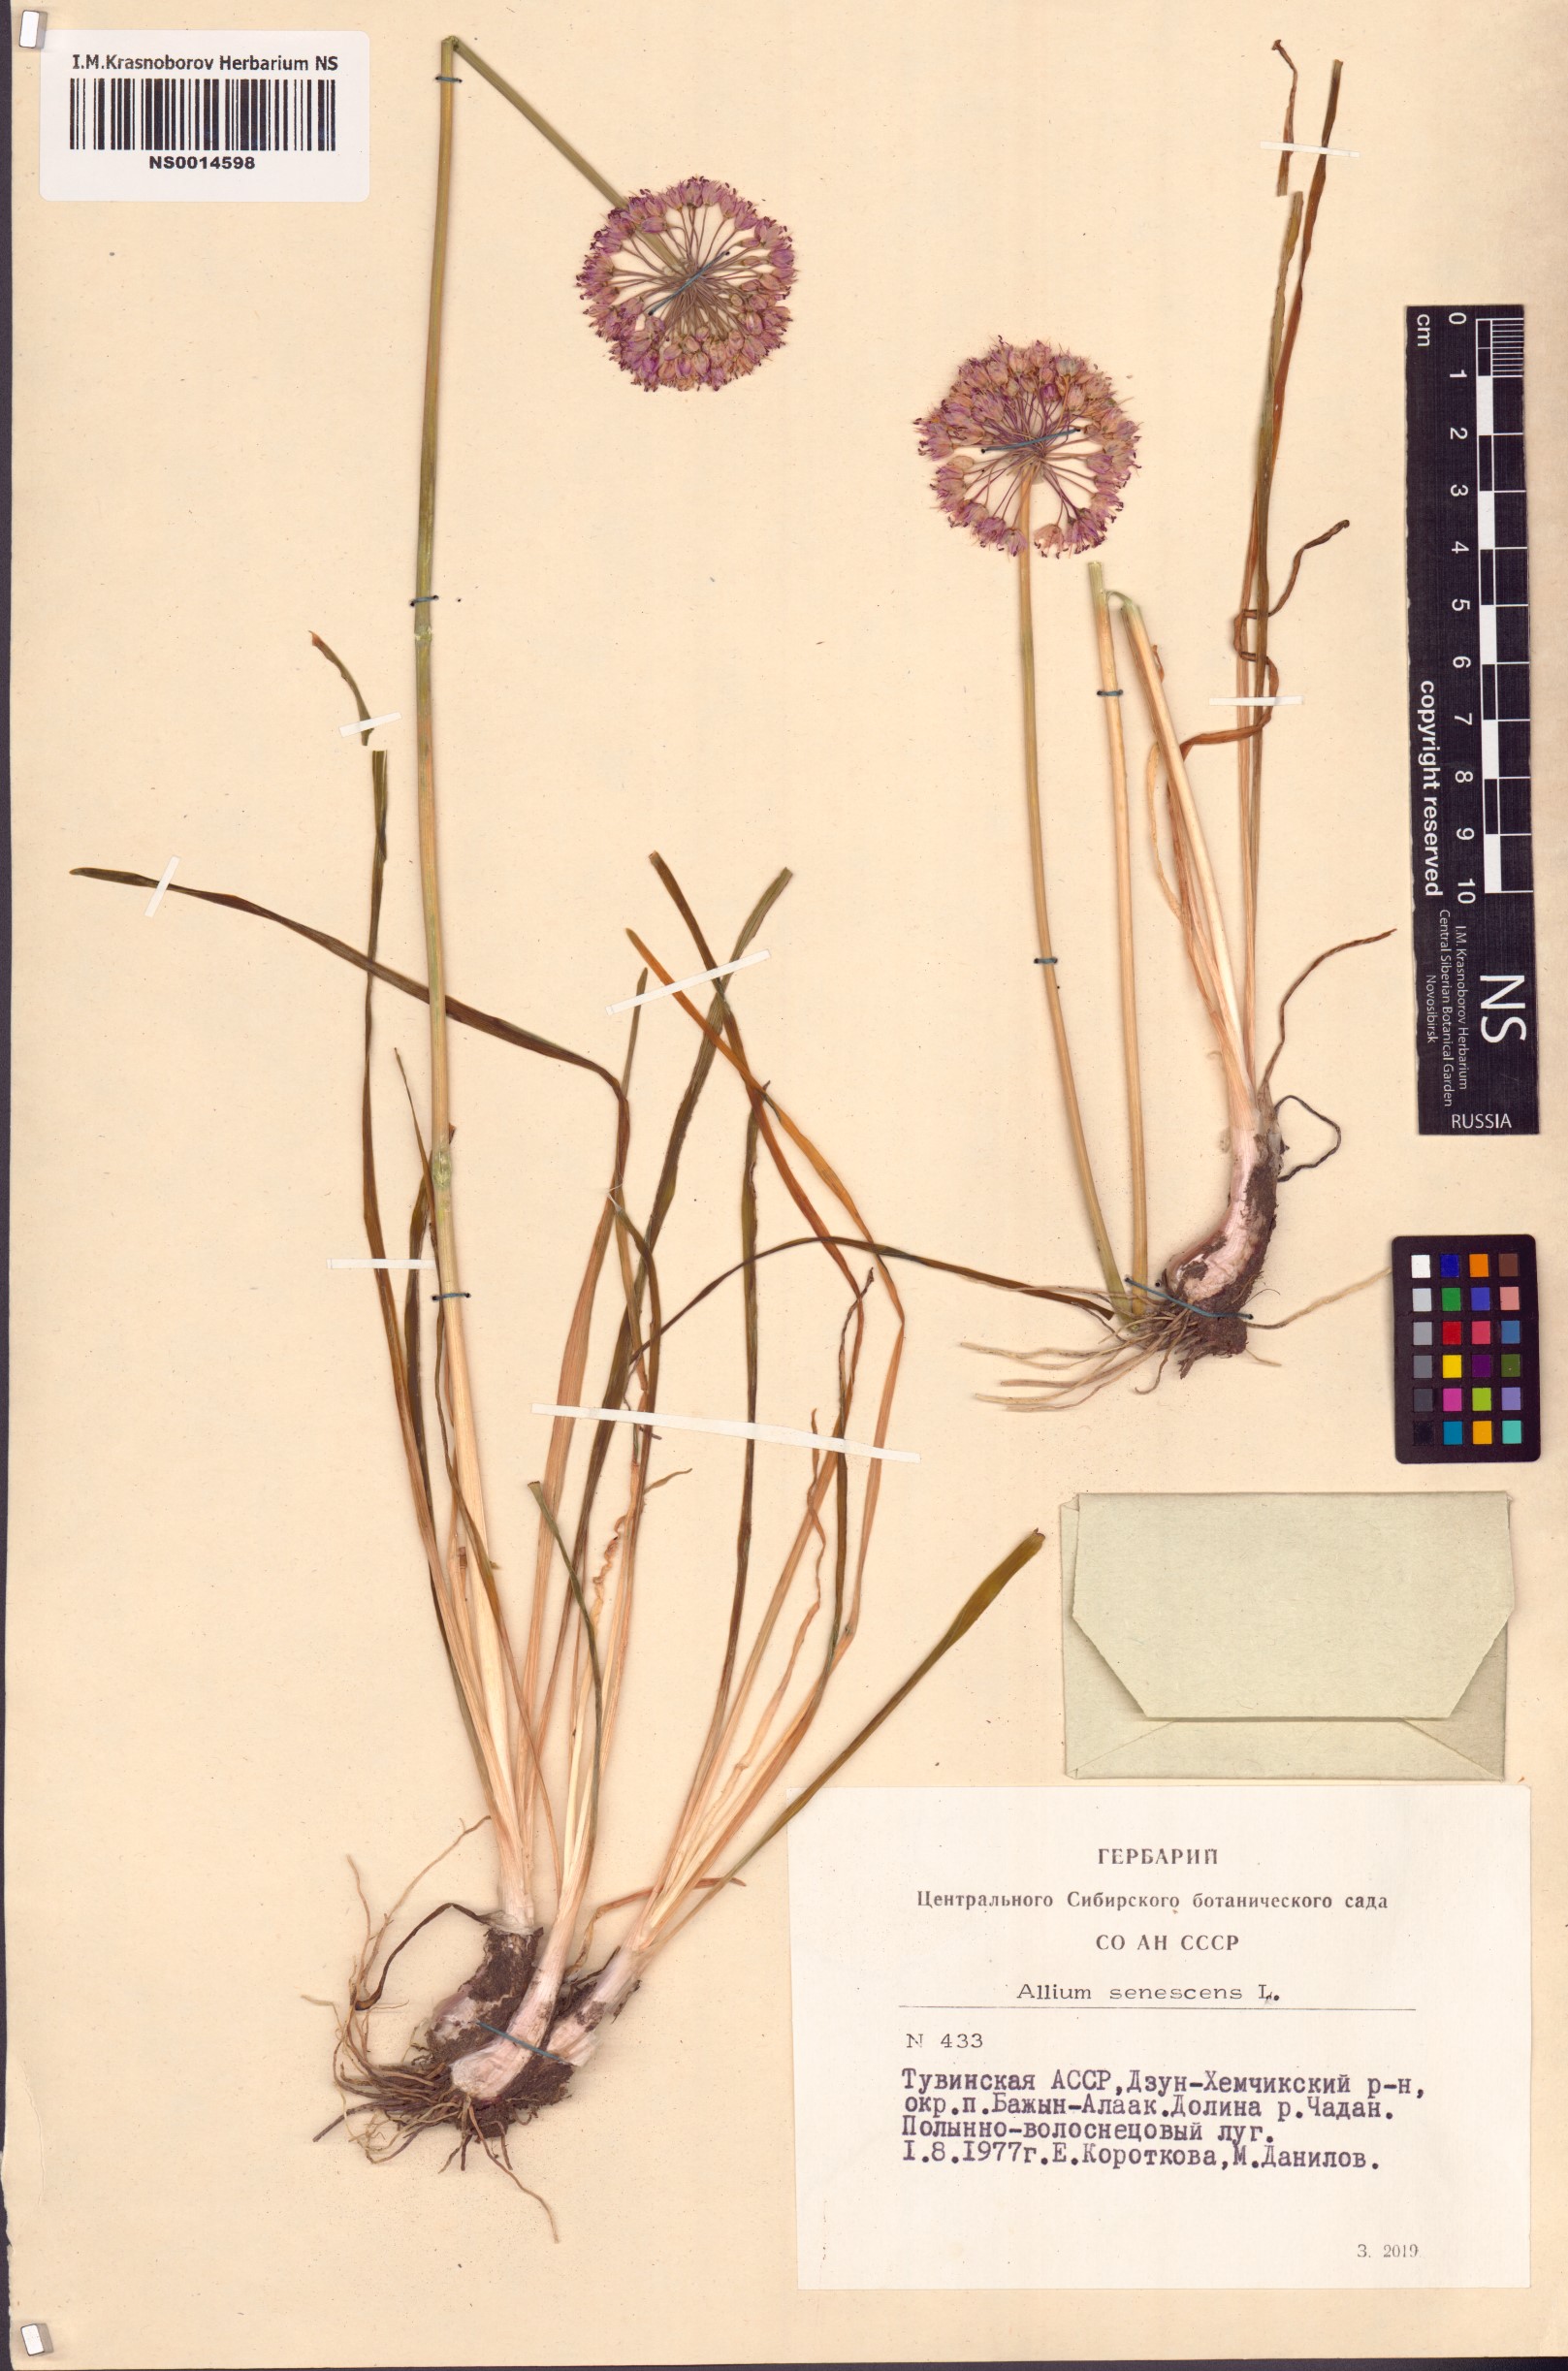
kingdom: Plantae
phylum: Tracheophyta
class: Liliopsida
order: Asparagales
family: Amaryllidaceae
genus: Allium
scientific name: Allium senescens
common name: German garlic
